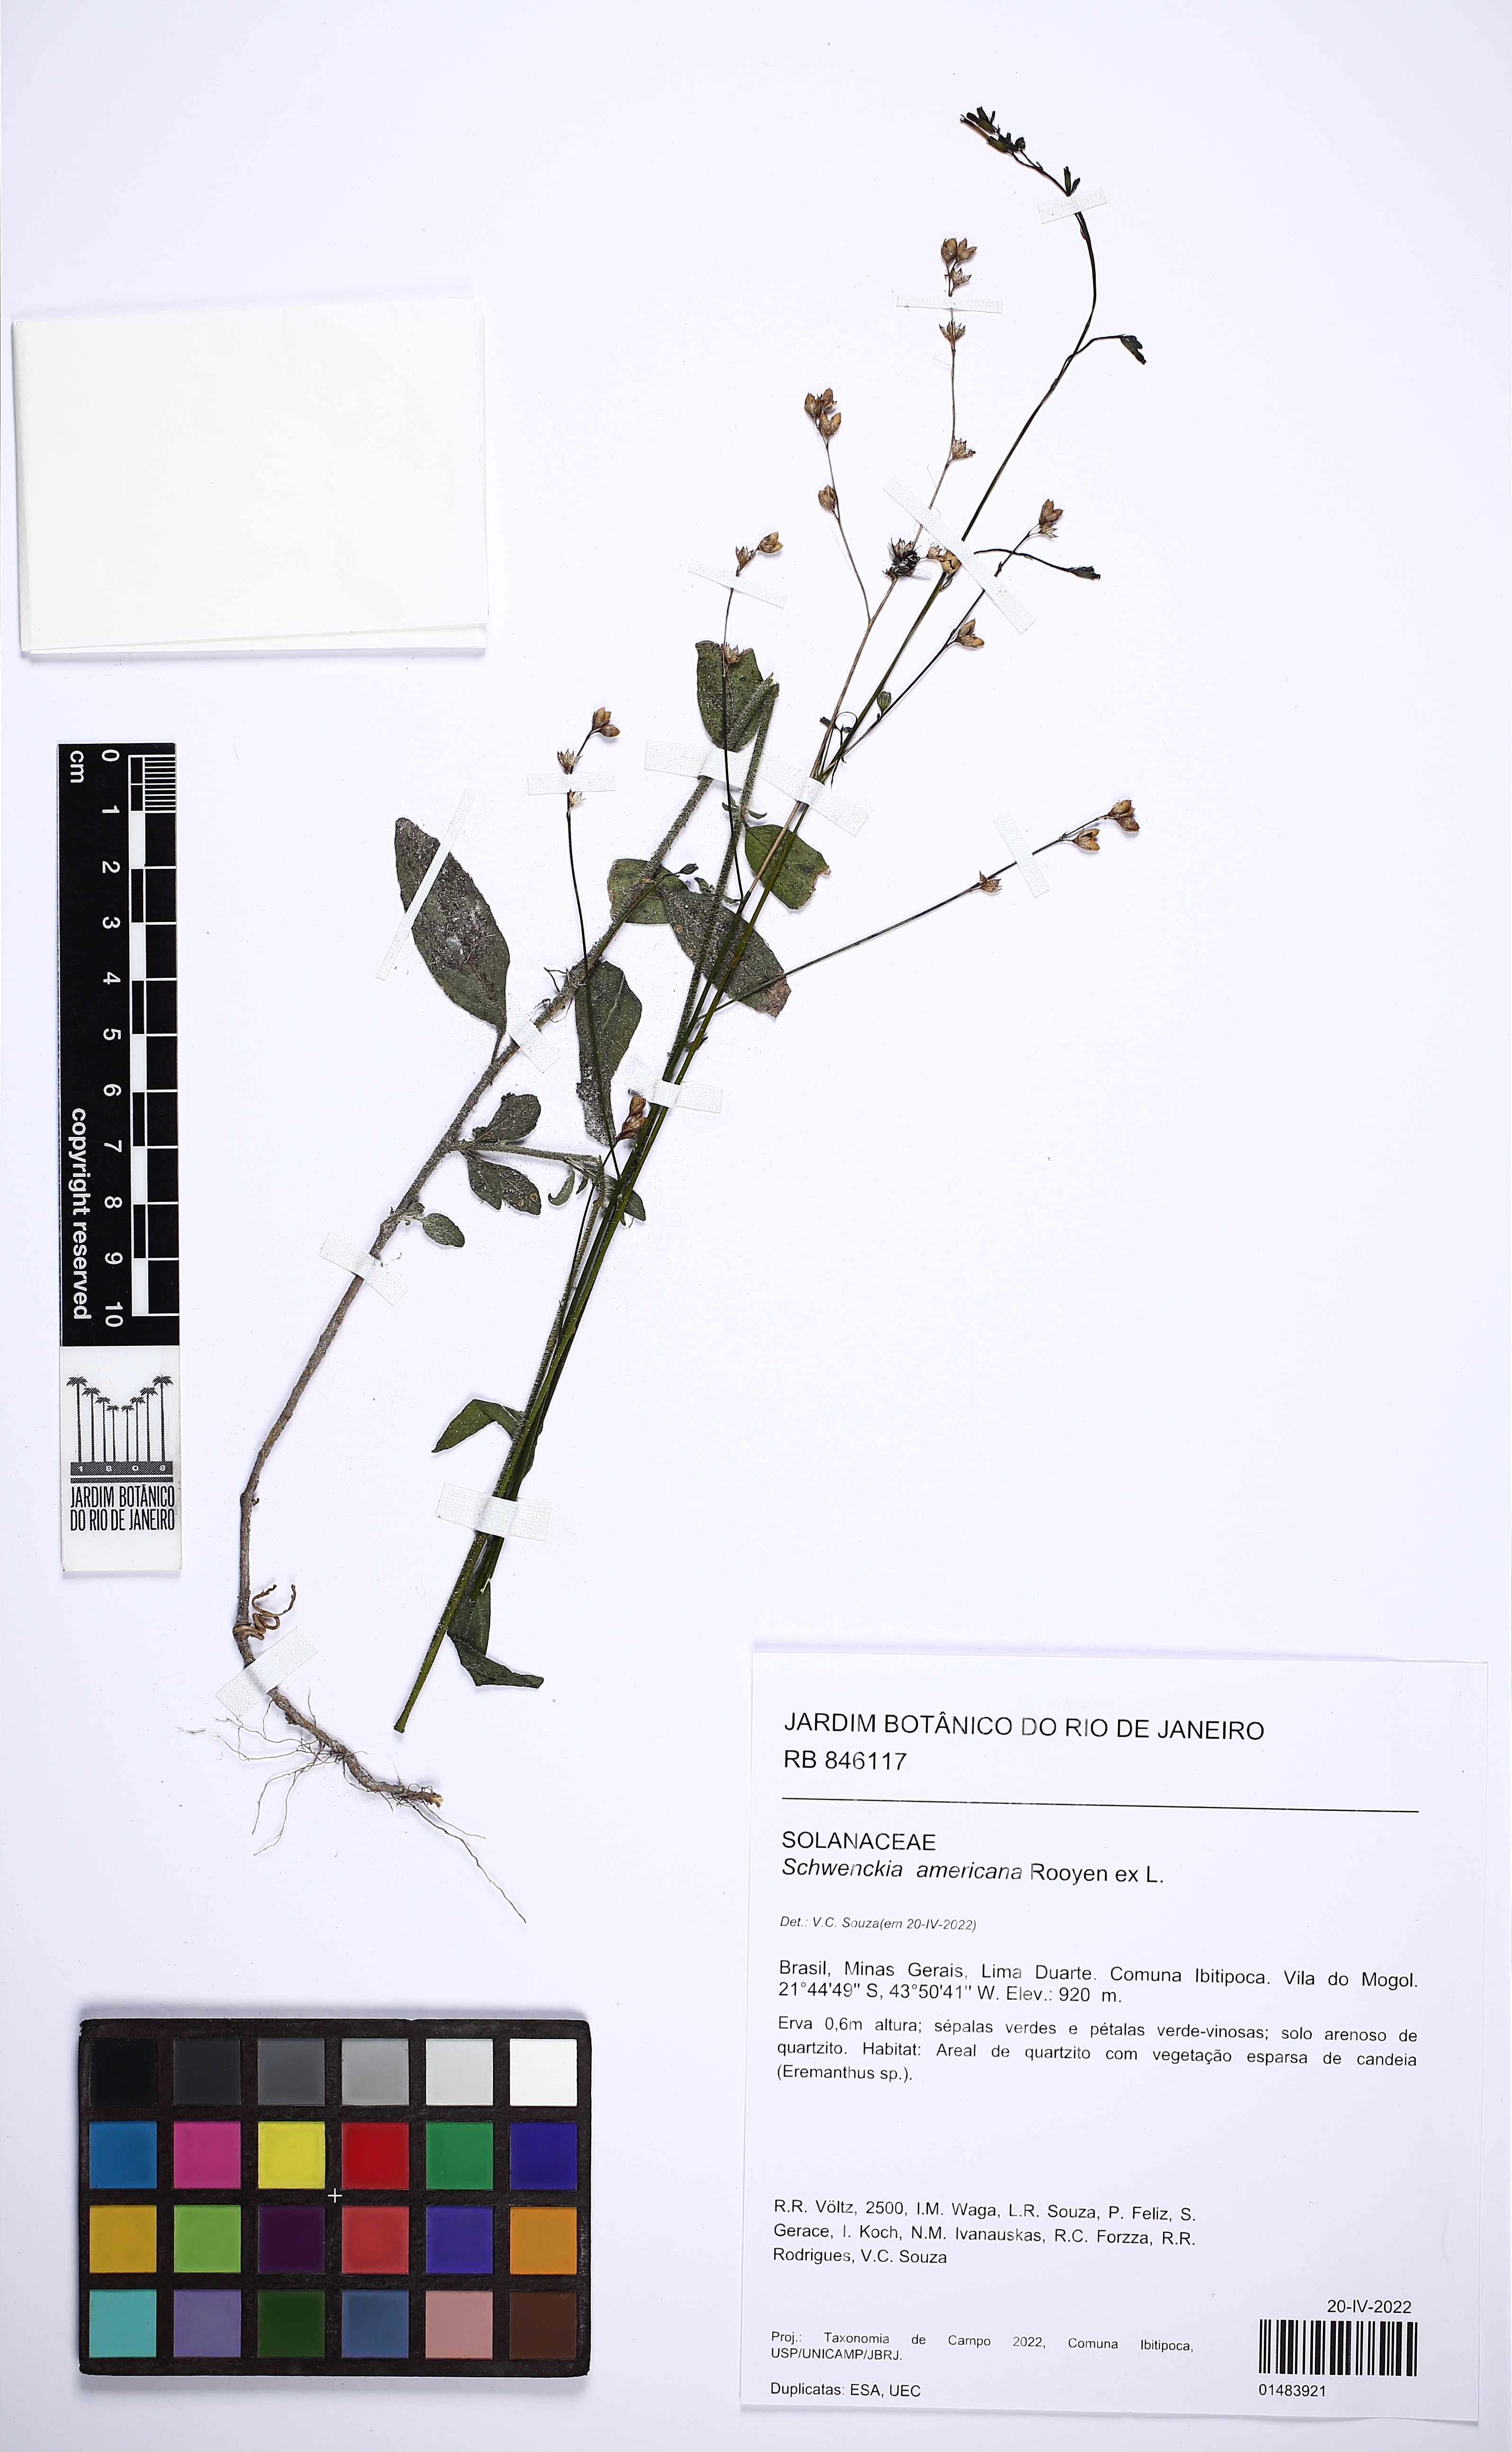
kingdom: Plantae
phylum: Tracheophyta
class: Magnoliopsida
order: Solanales
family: Solanaceae
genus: Schwenckia
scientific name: Schwenckia americana
